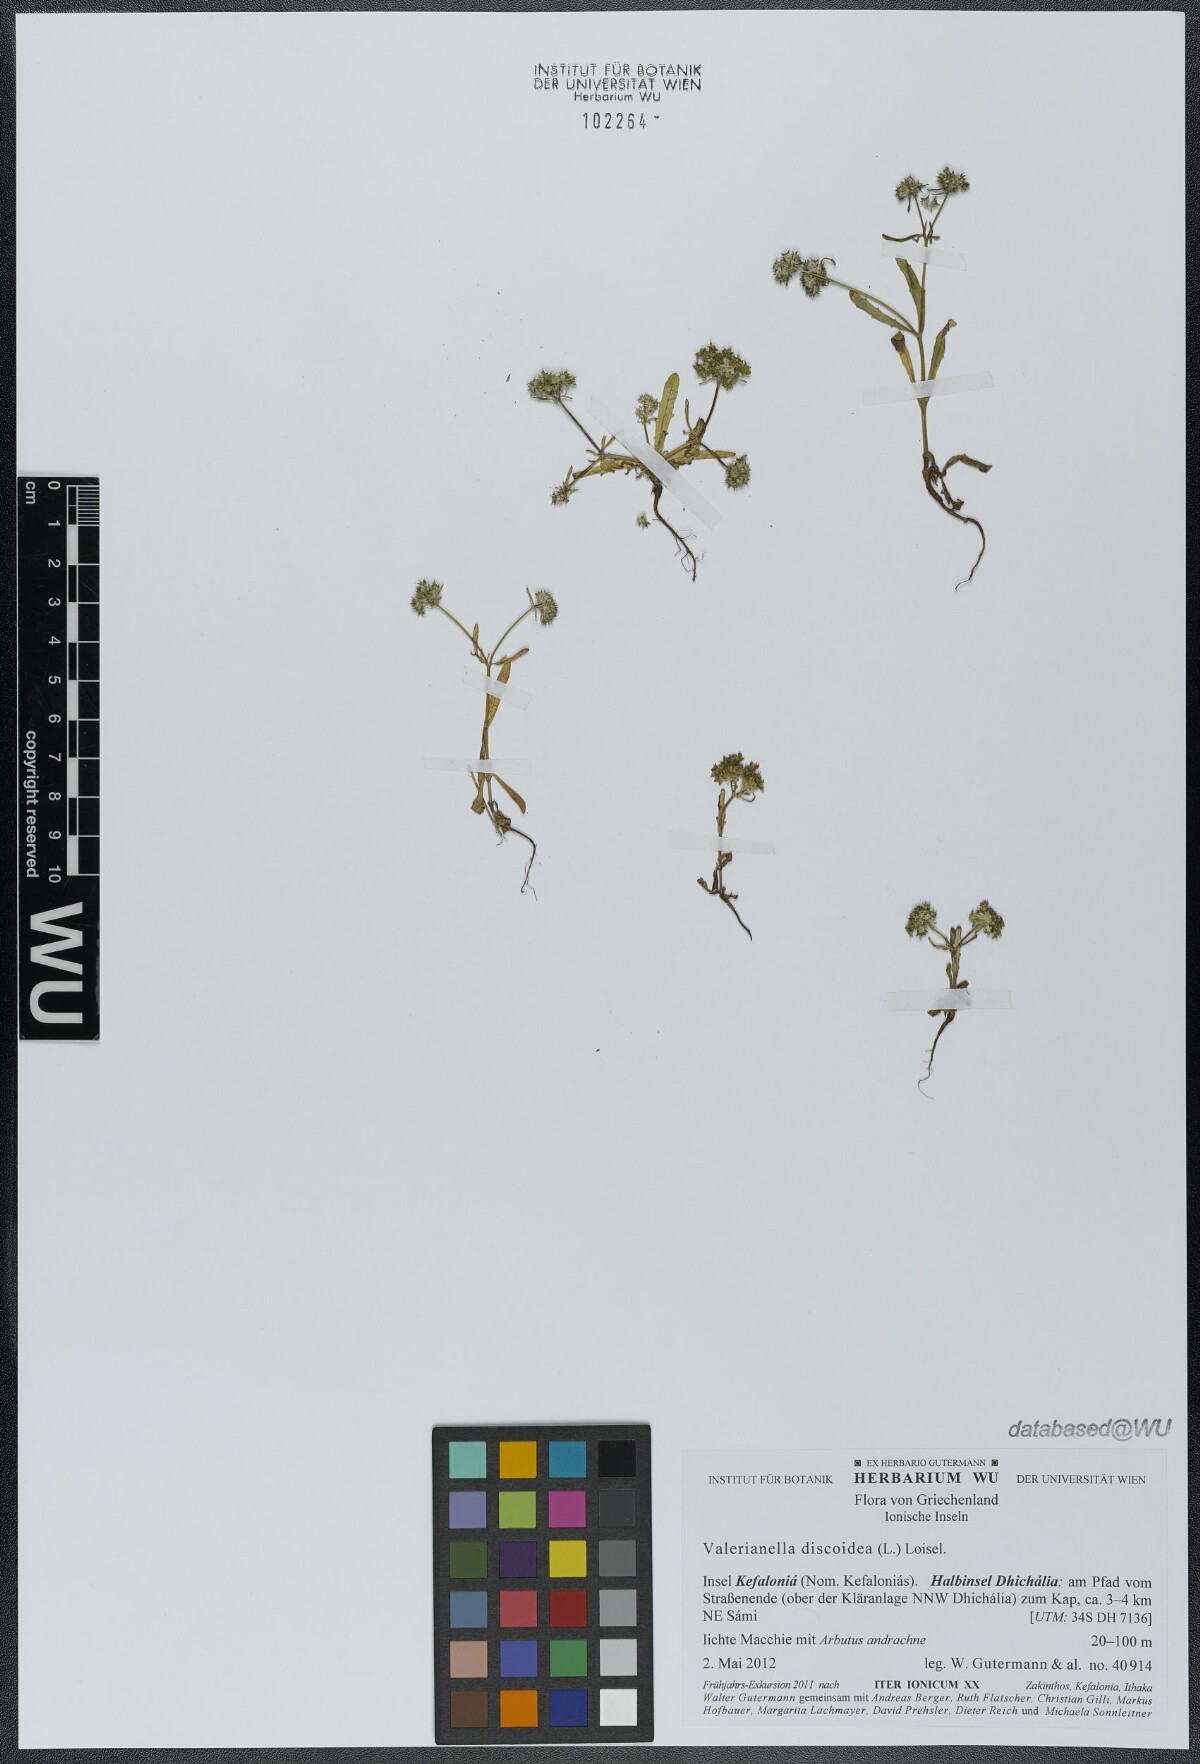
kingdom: Plantae
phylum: Tracheophyta
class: Magnoliopsida
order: Dipsacales
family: Caprifoliaceae
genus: Valerianella
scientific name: Valerianella discoidea
